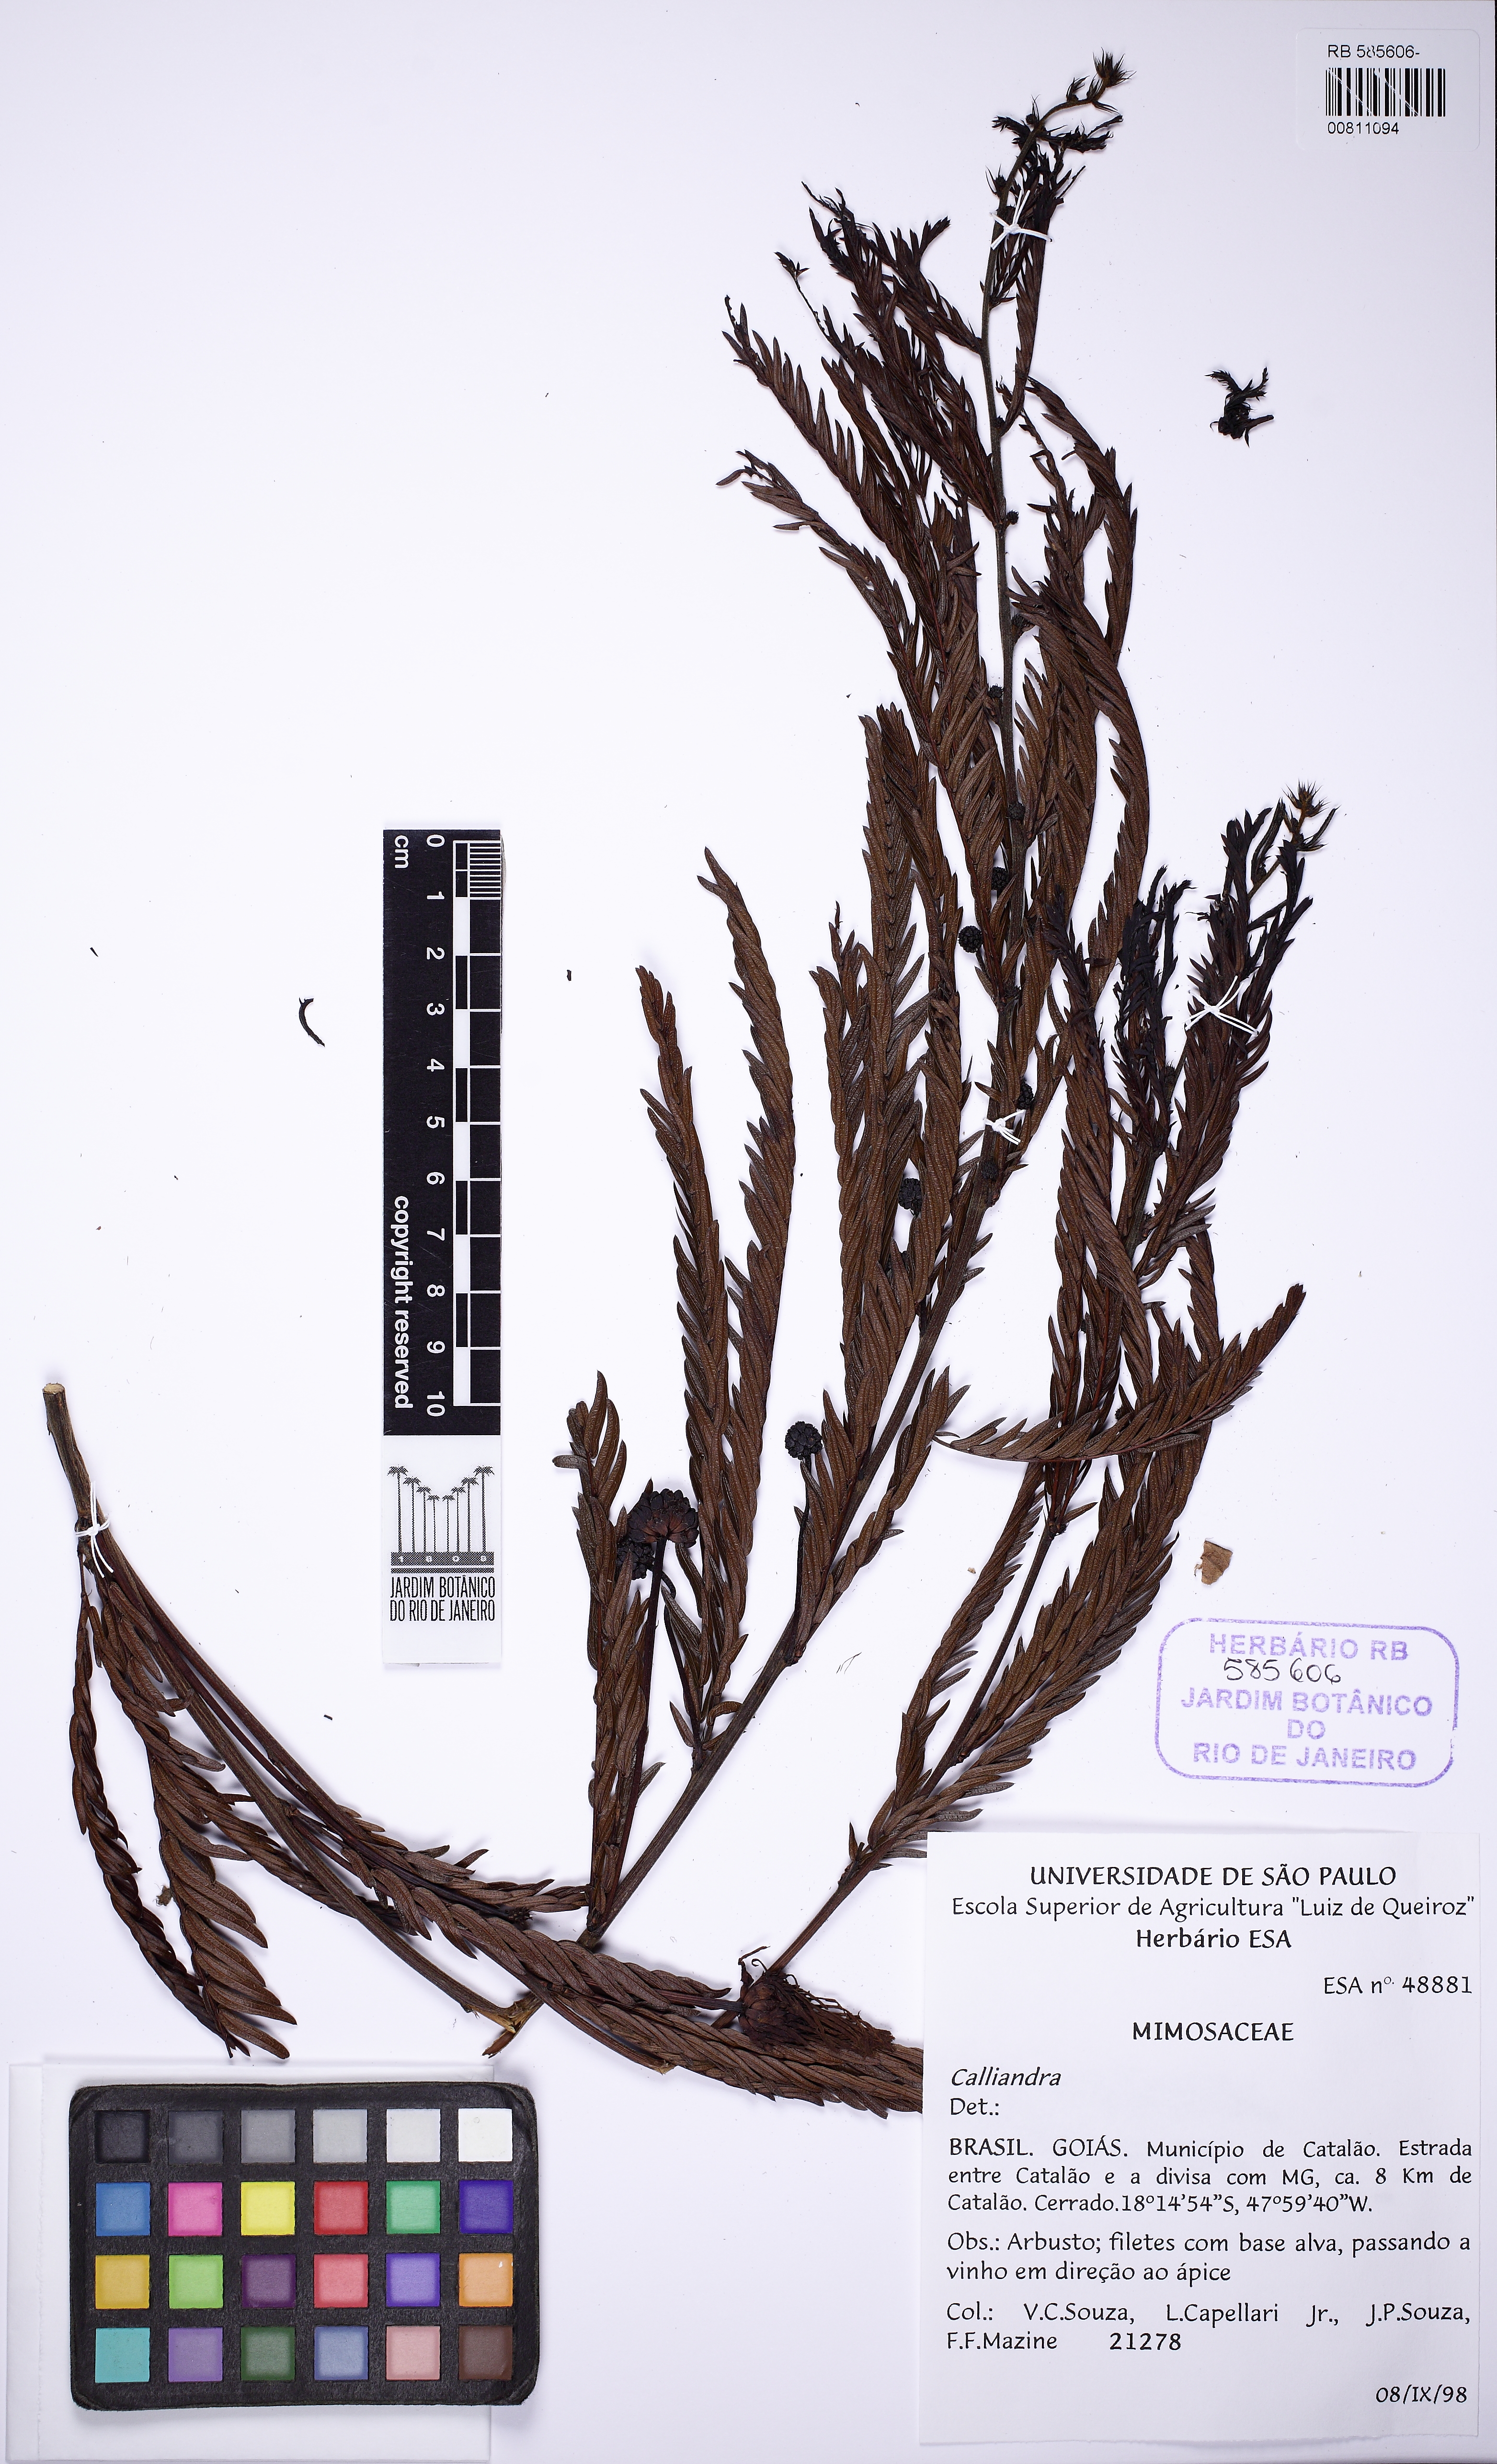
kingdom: Plantae
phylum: Tracheophyta
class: Magnoliopsida
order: Fabales
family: Fabaceae
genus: Calliandra
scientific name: Calliandra
